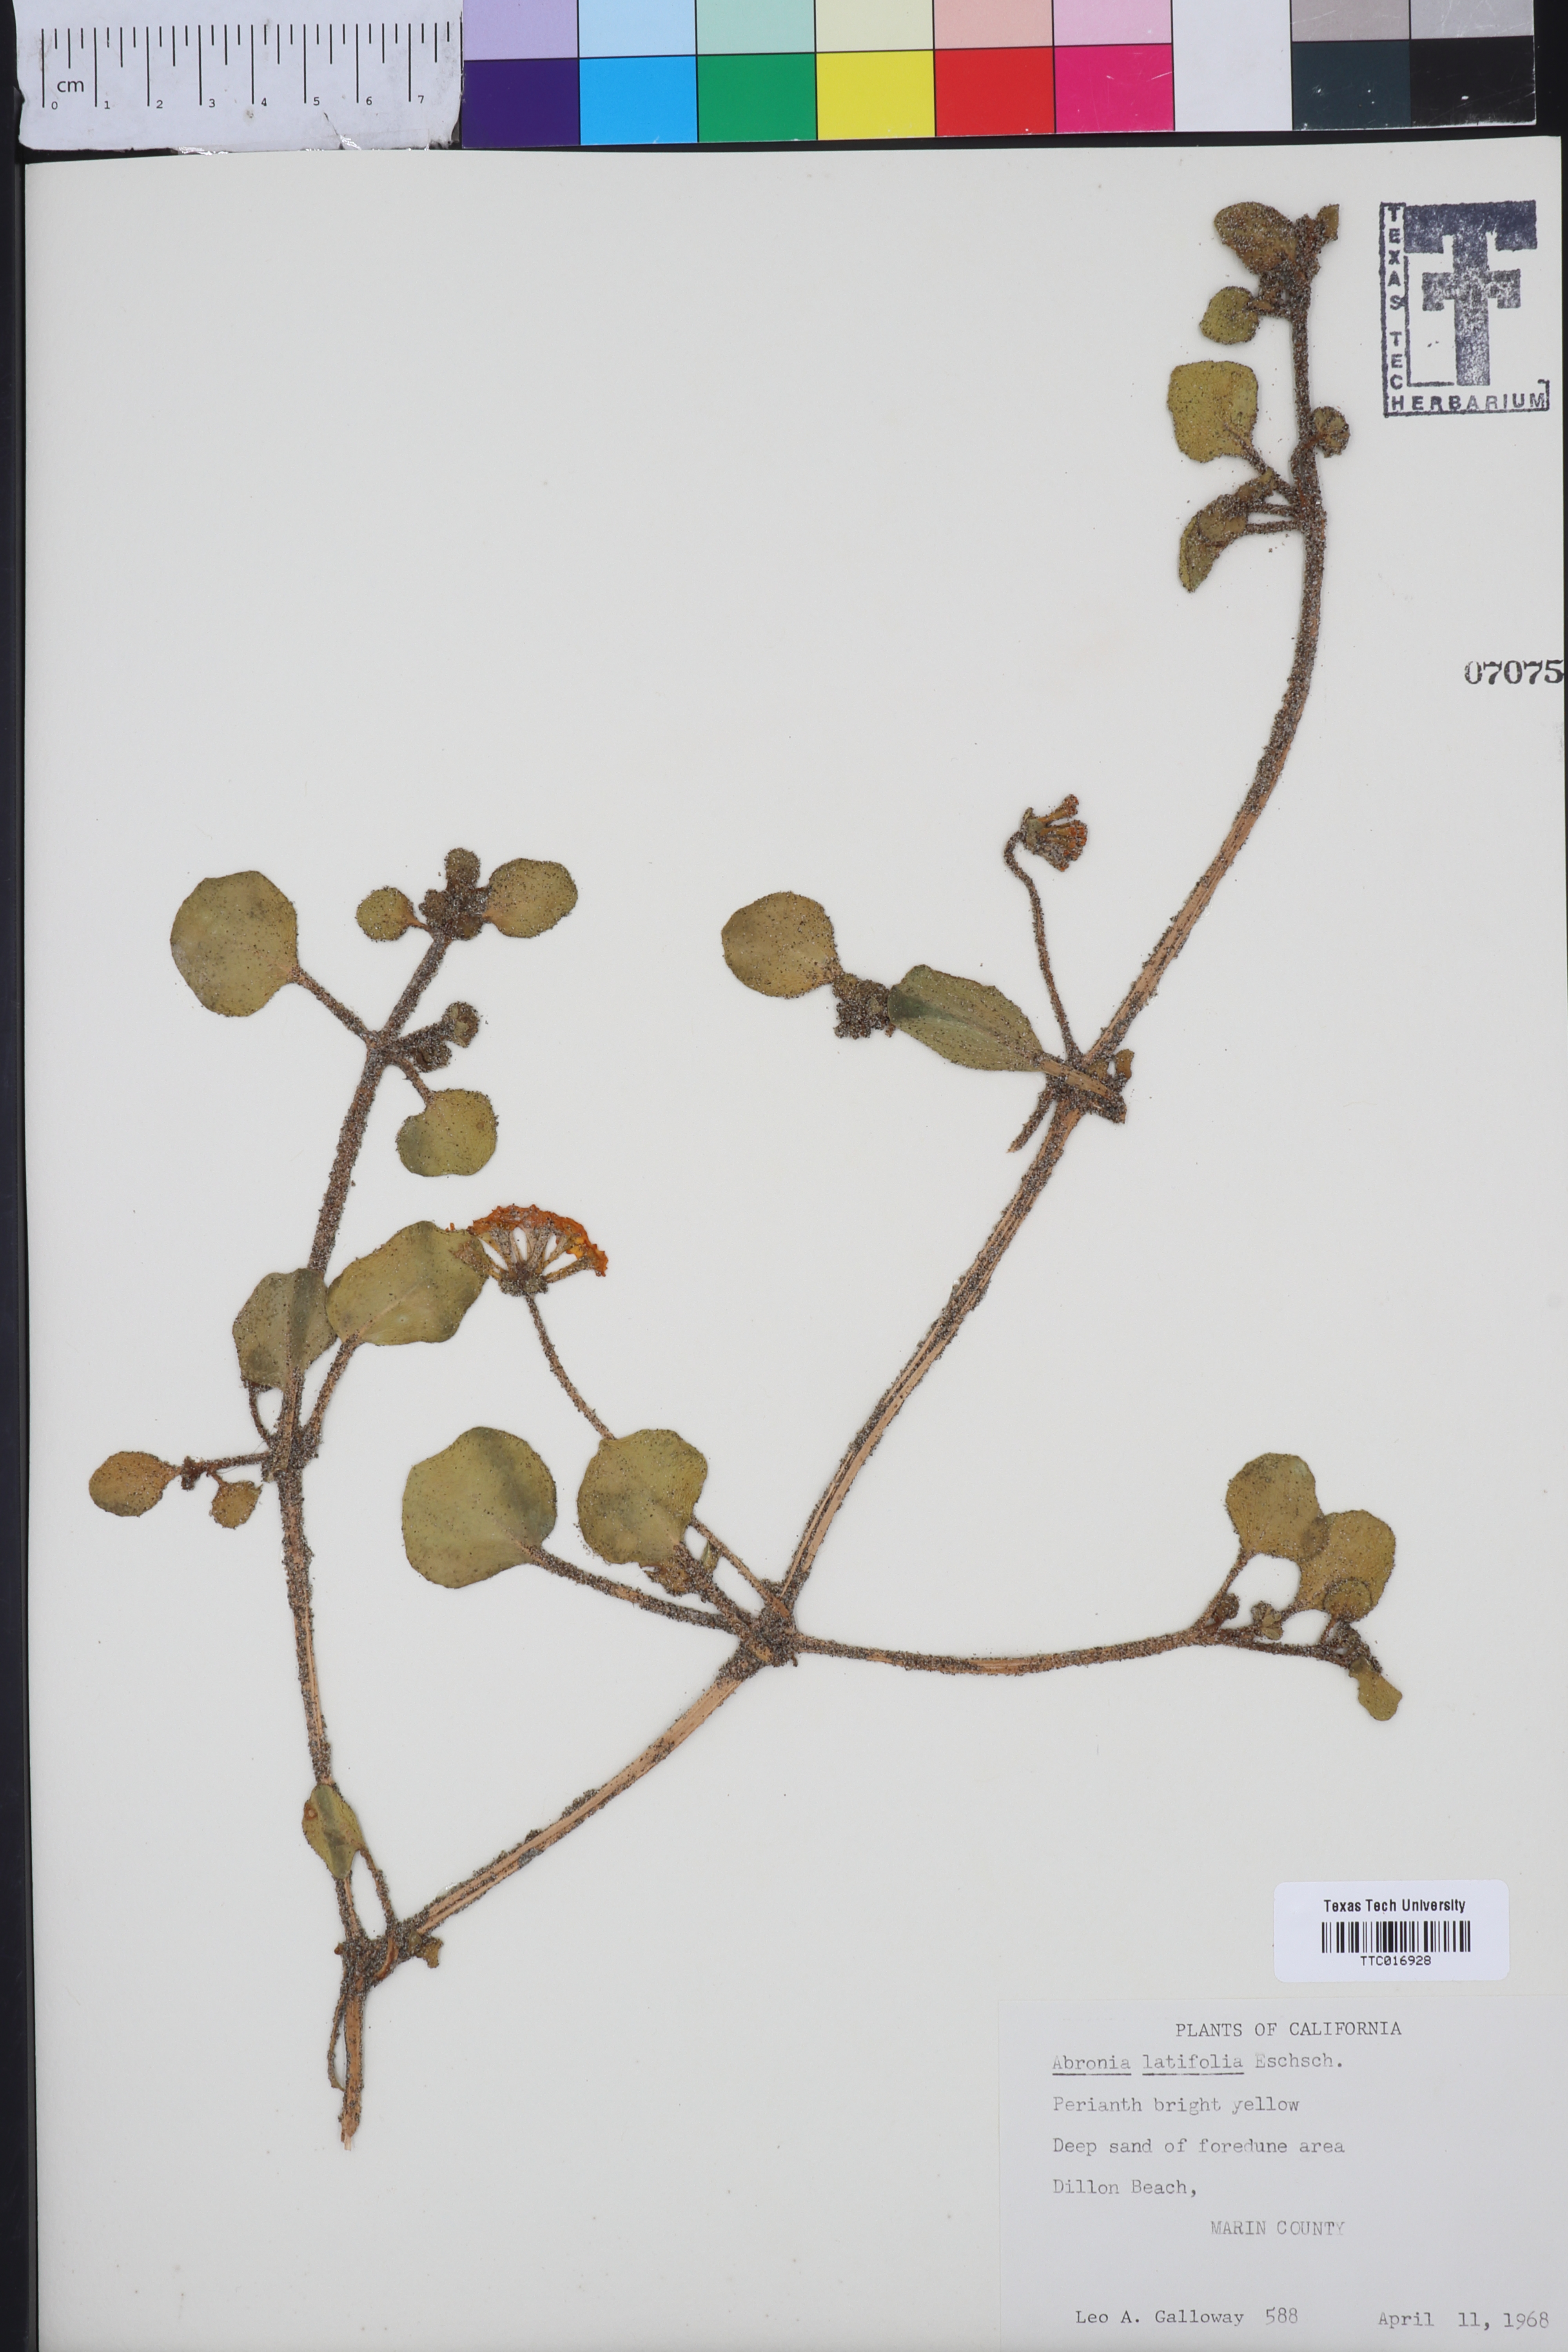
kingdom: Plantae
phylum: Tracheophyta
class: Magnoliopsida
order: Caryophyllales
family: Nyctaginaceae
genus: Abronia
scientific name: Abronia latifolia
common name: Yellow sand-verbena
